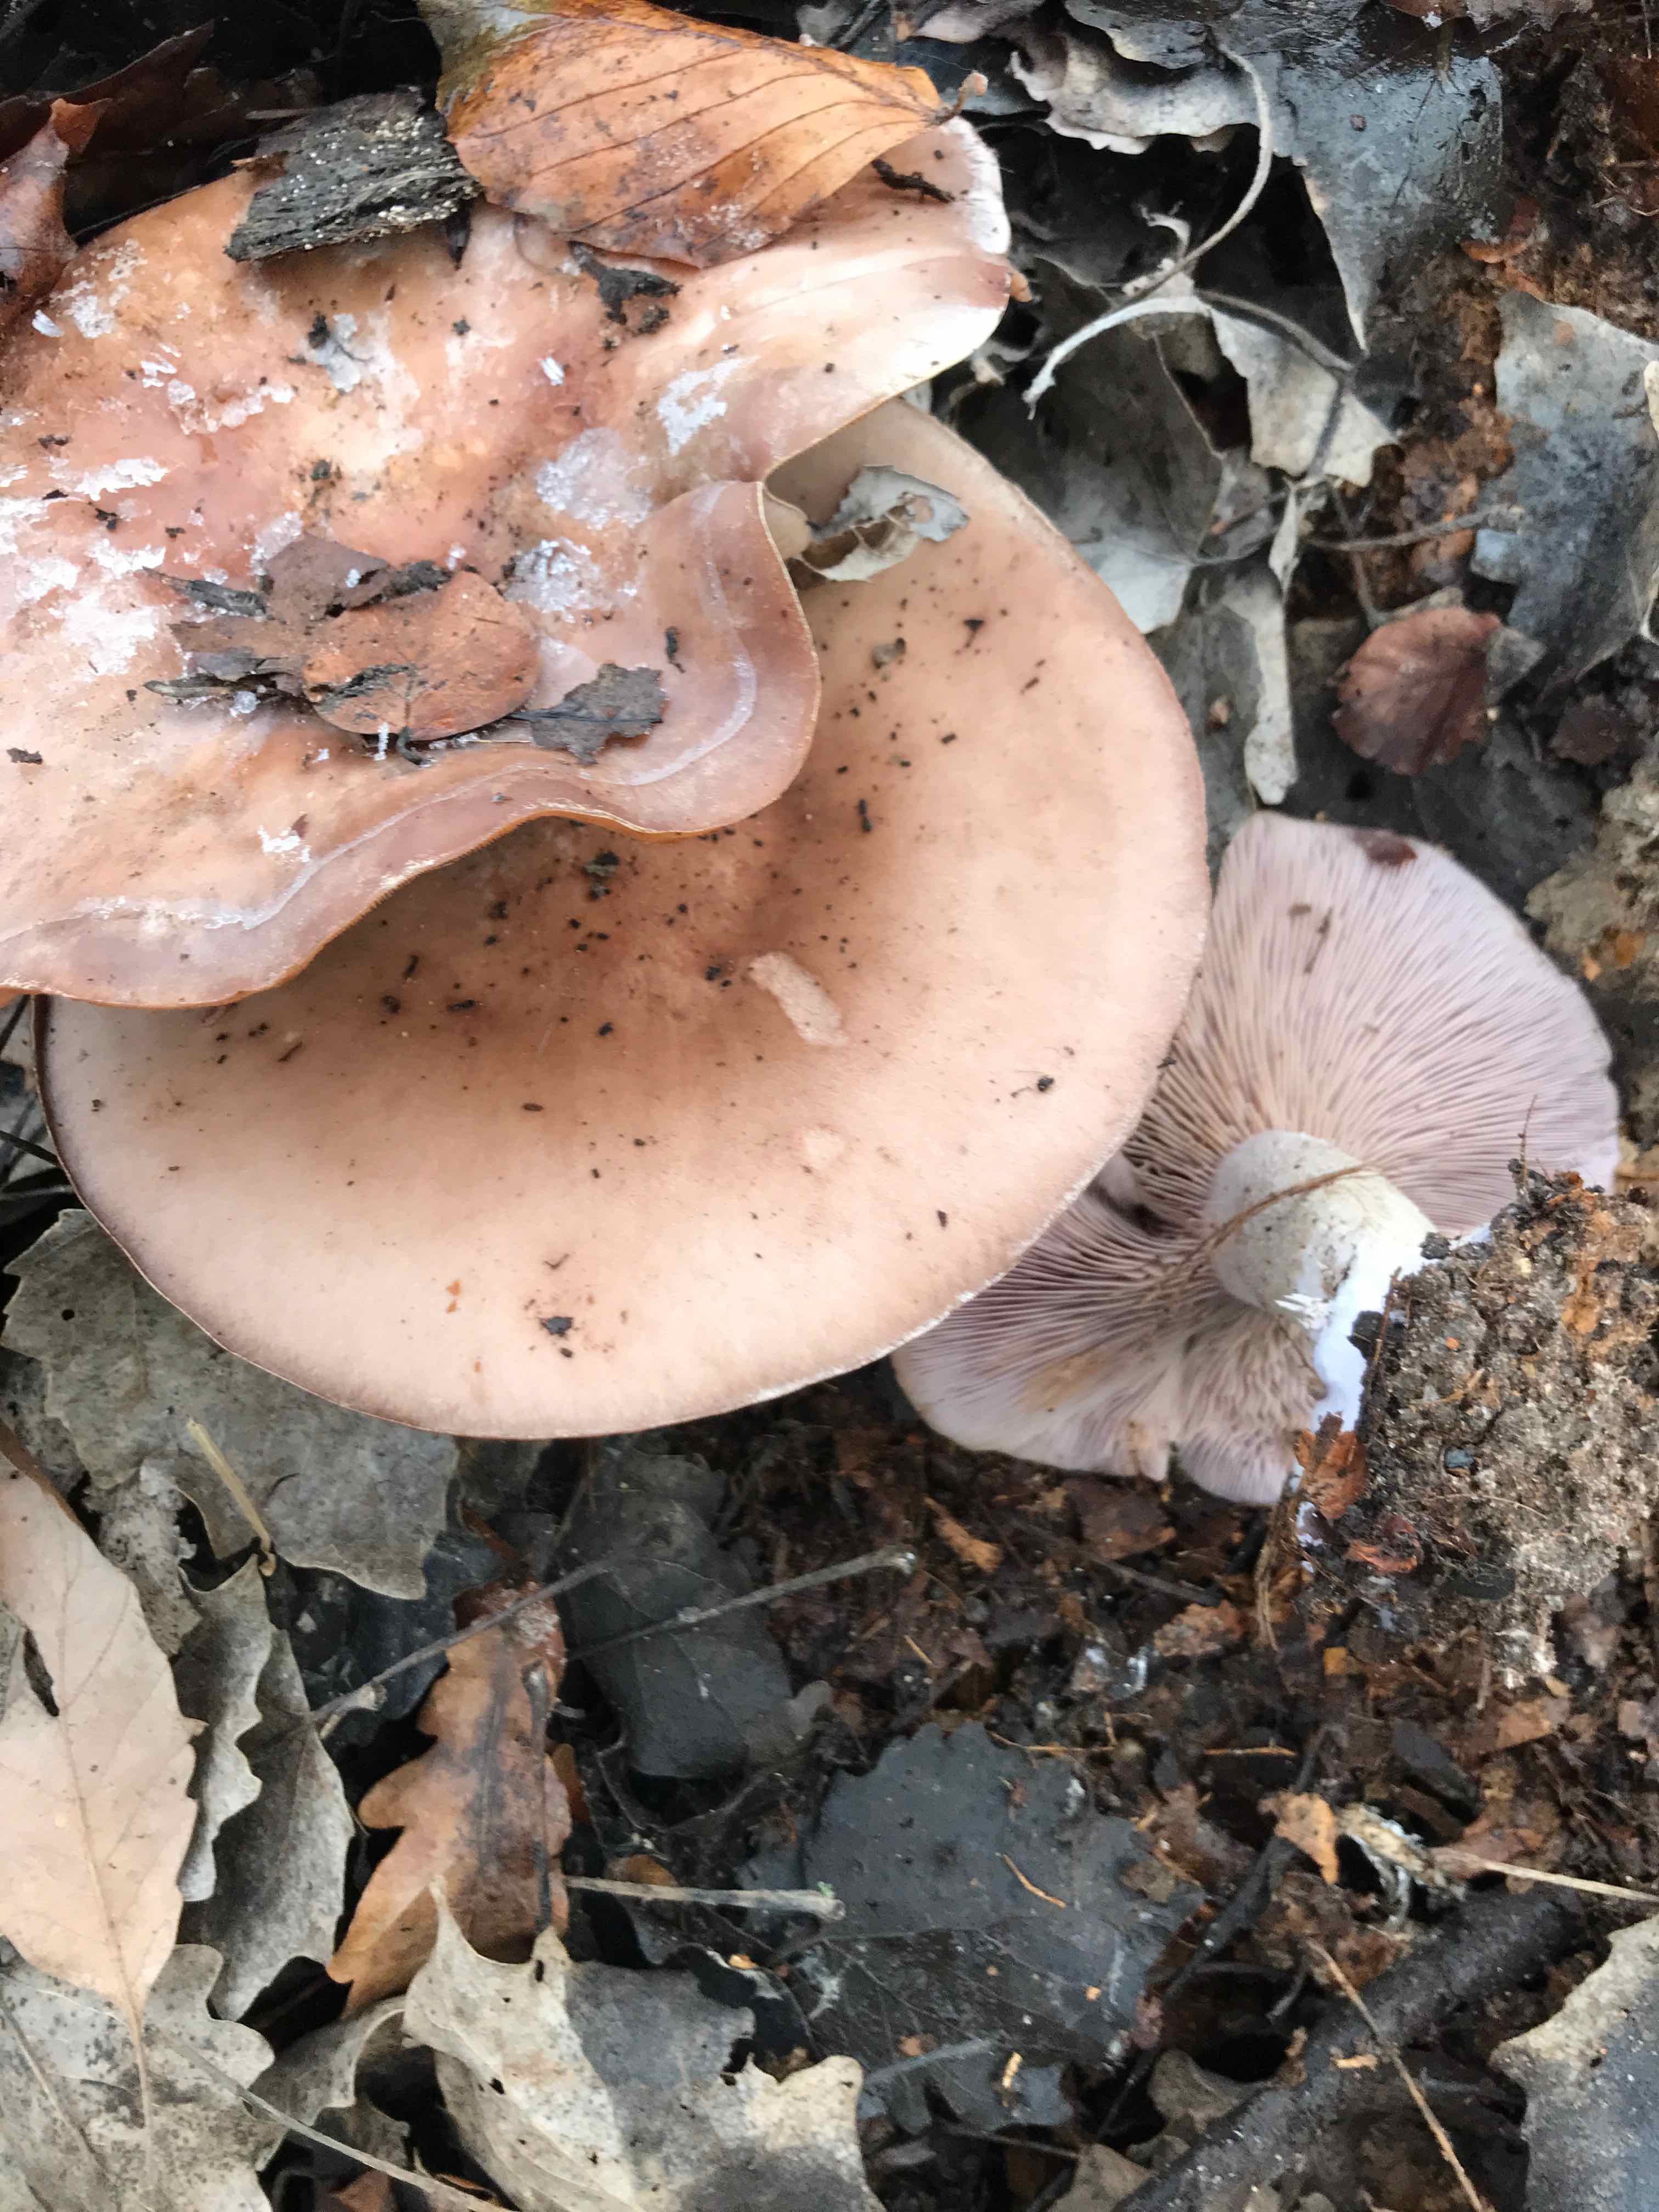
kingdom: Fungi
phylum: Basidiomycota
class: Agaricomycetes
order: Agaricales
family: Tricholomataceae
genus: Lepista
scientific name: Lepista nuda
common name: violet hekseringshat
